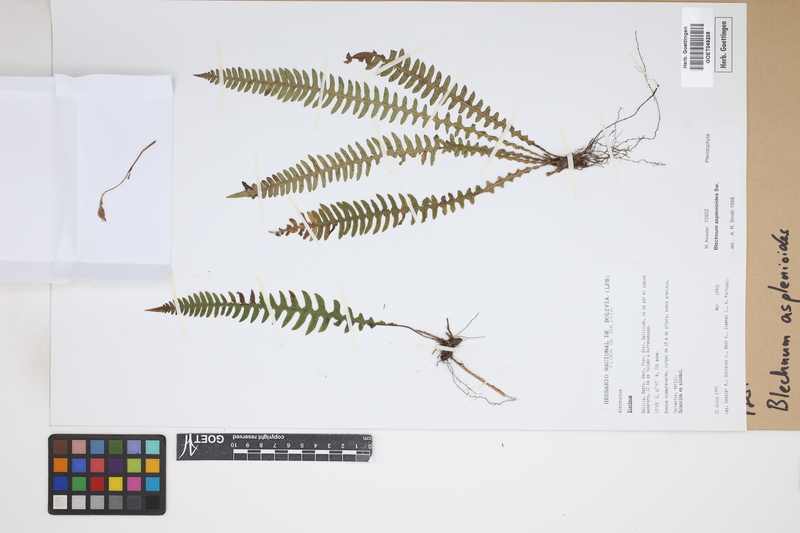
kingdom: Plantae
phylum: Tracheophyta
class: Polypodiopsida
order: Polypodiales
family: Blechnaceae
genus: Blechnum
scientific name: Blechnum asplenioides
